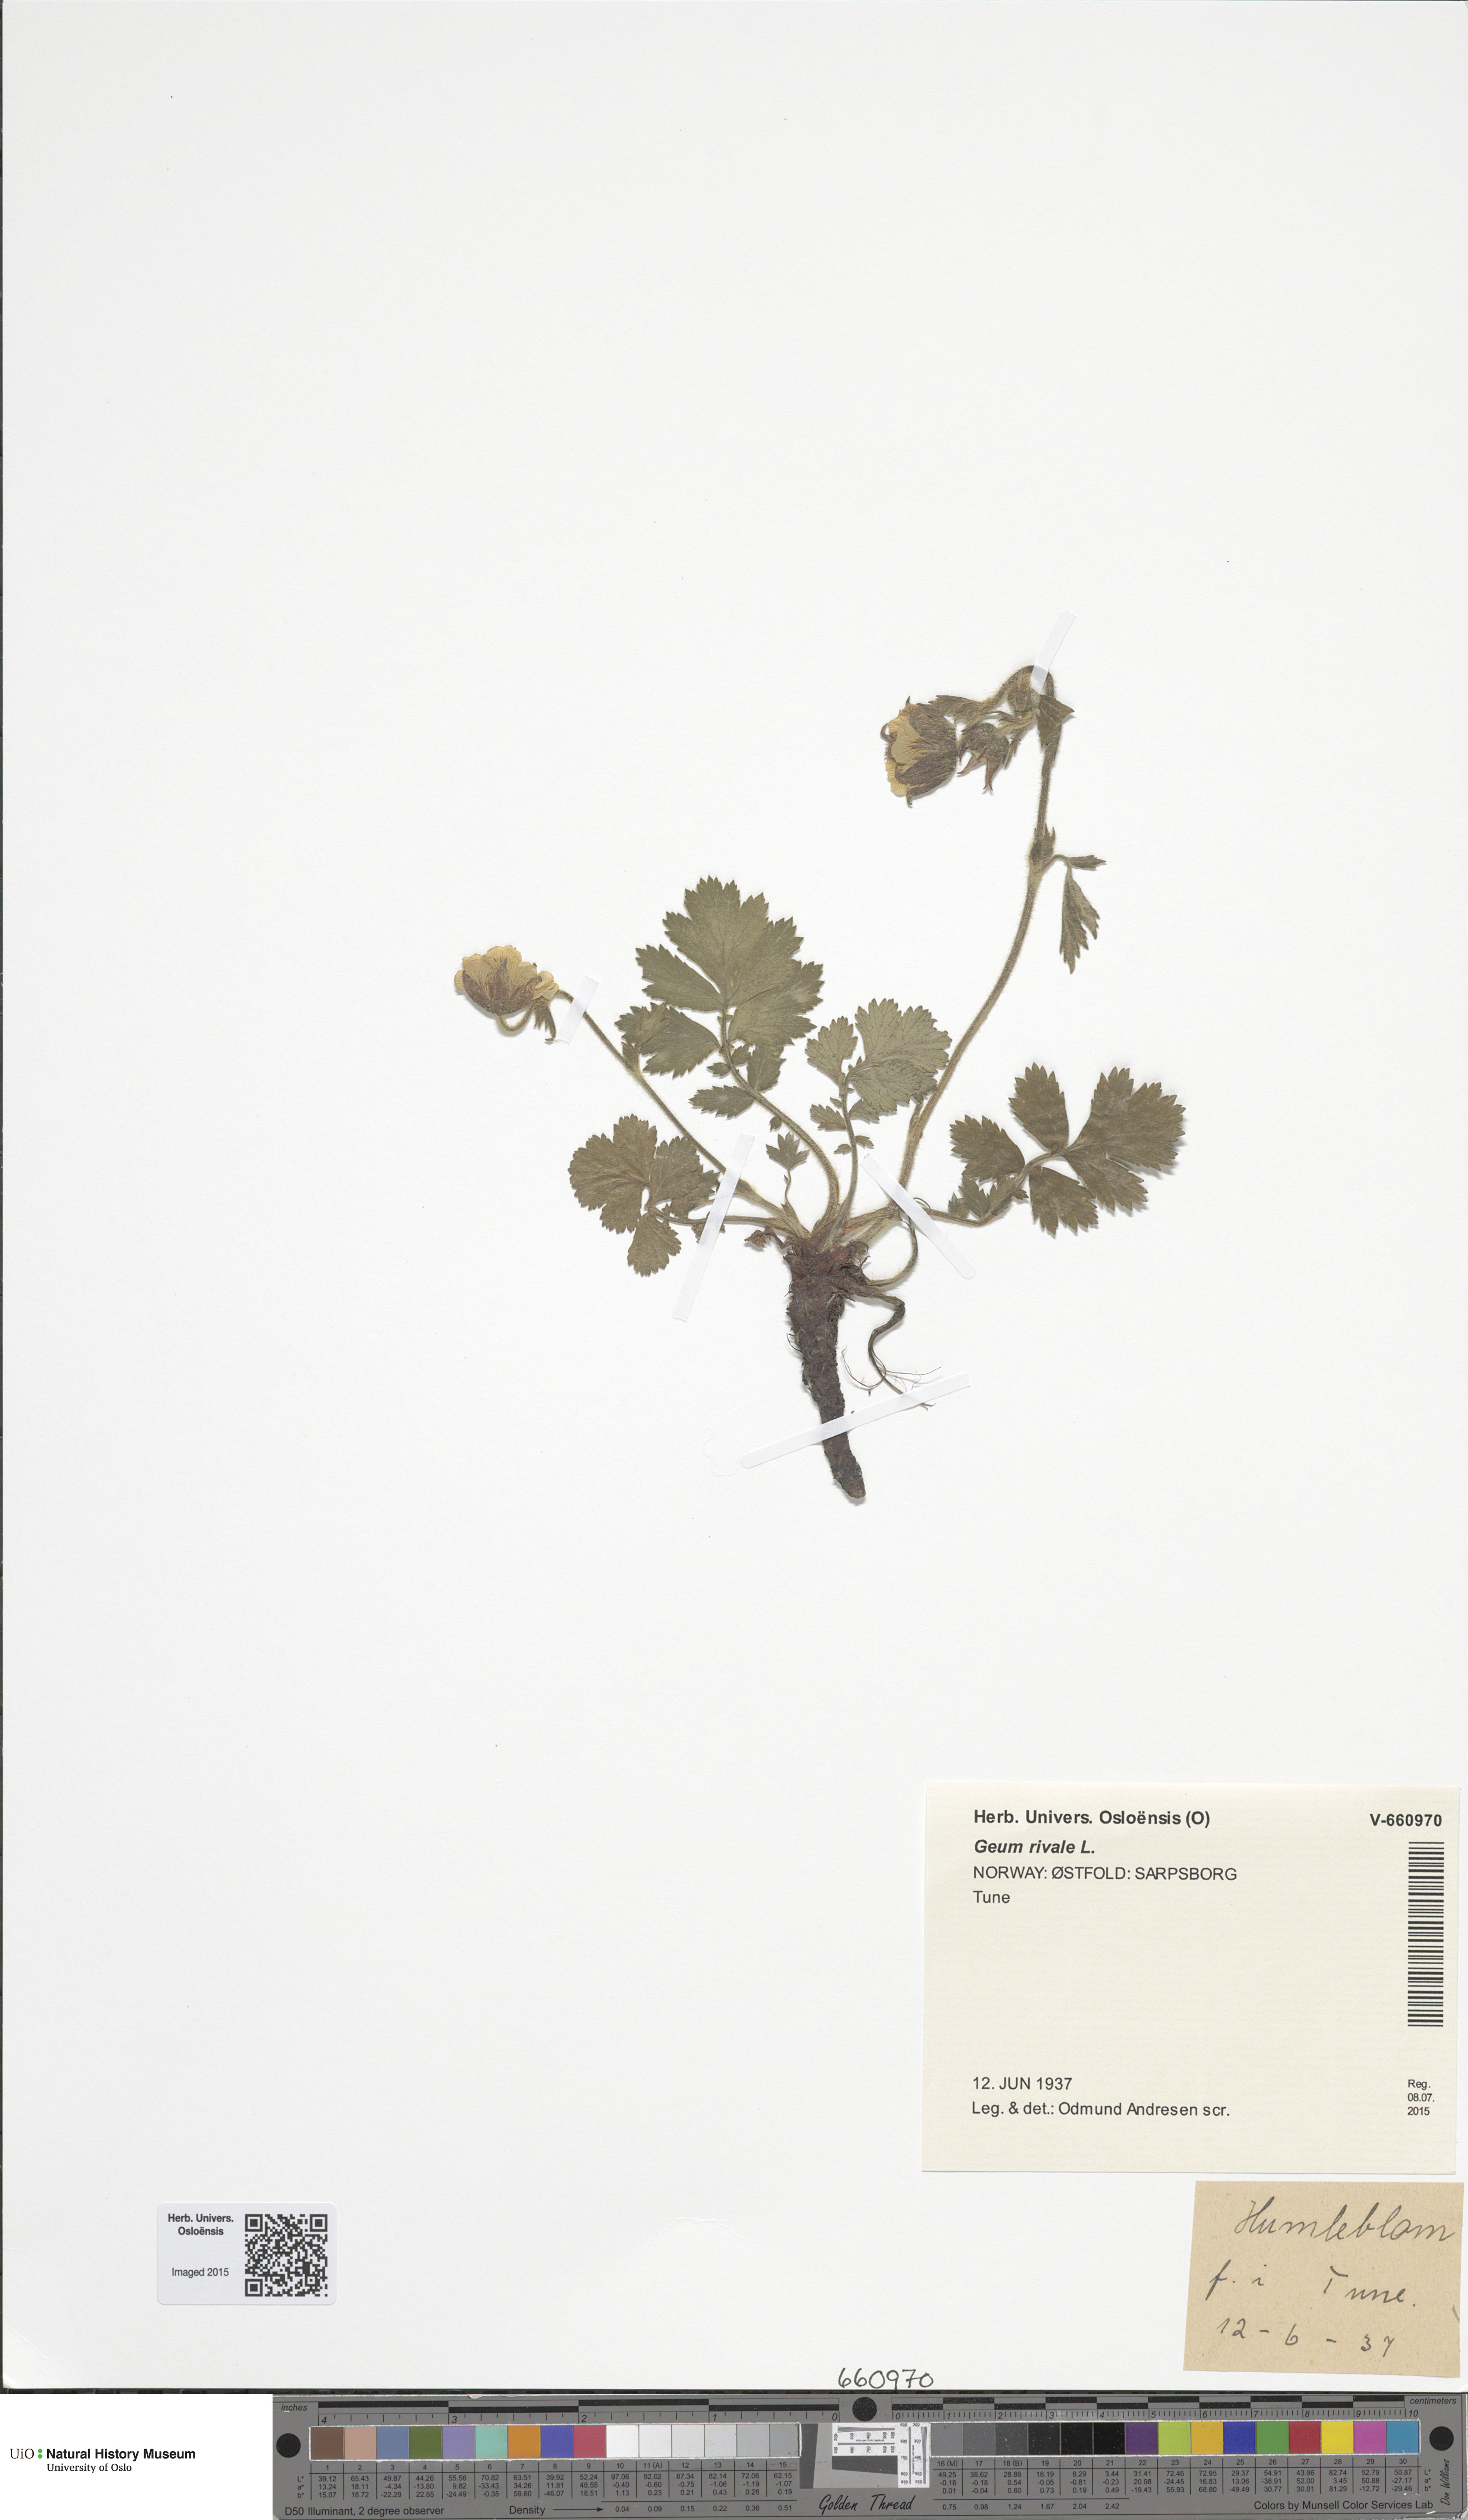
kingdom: Plantae
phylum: Tracheophyta
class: Magnoliopsida
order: Rosales
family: Rosaceae
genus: Geum
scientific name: Geum rivale
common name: Water avens
